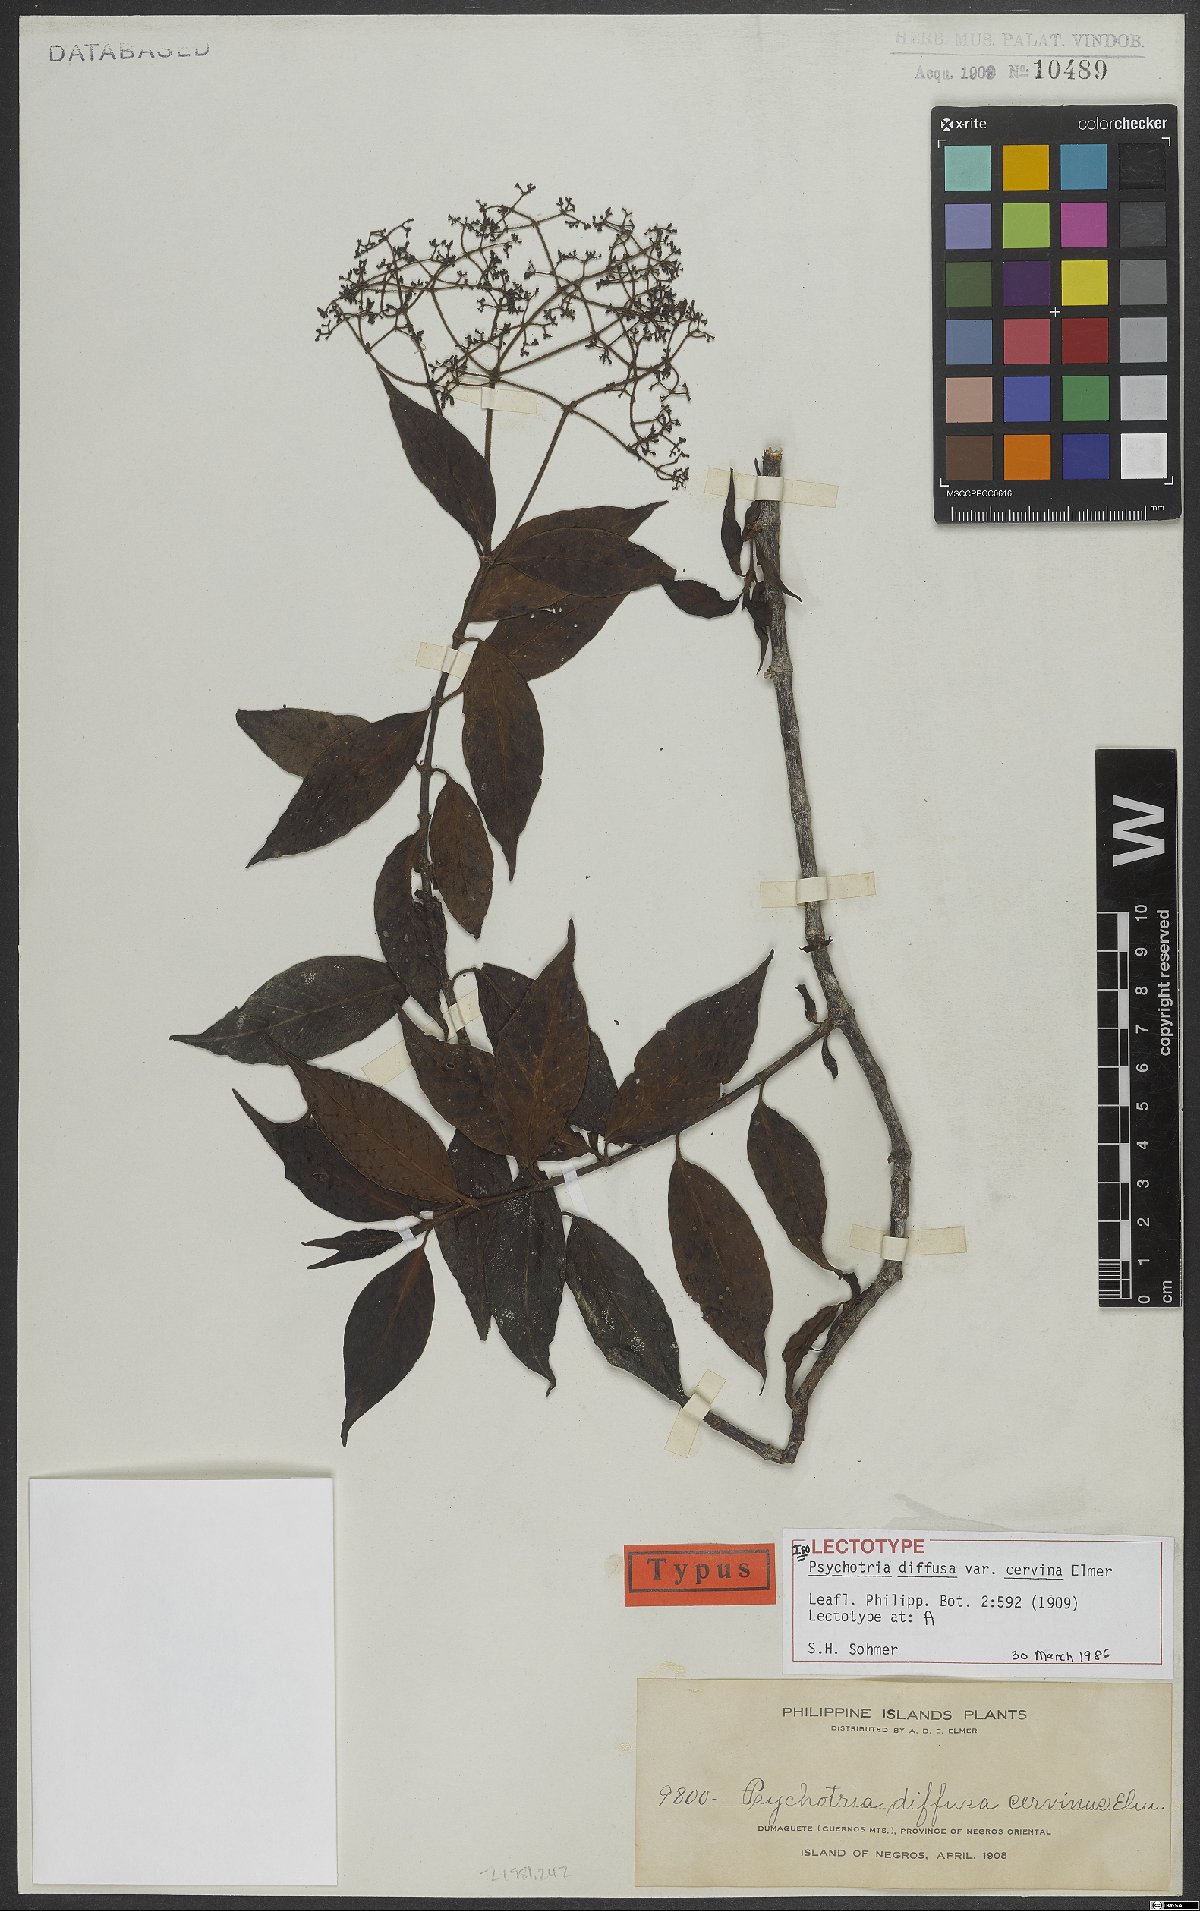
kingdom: Plantae
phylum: Tracheophyta
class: Magnoliopsida
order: Gentianales
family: Rubiaceae
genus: Psychotria
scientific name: Psychotria diffusa
